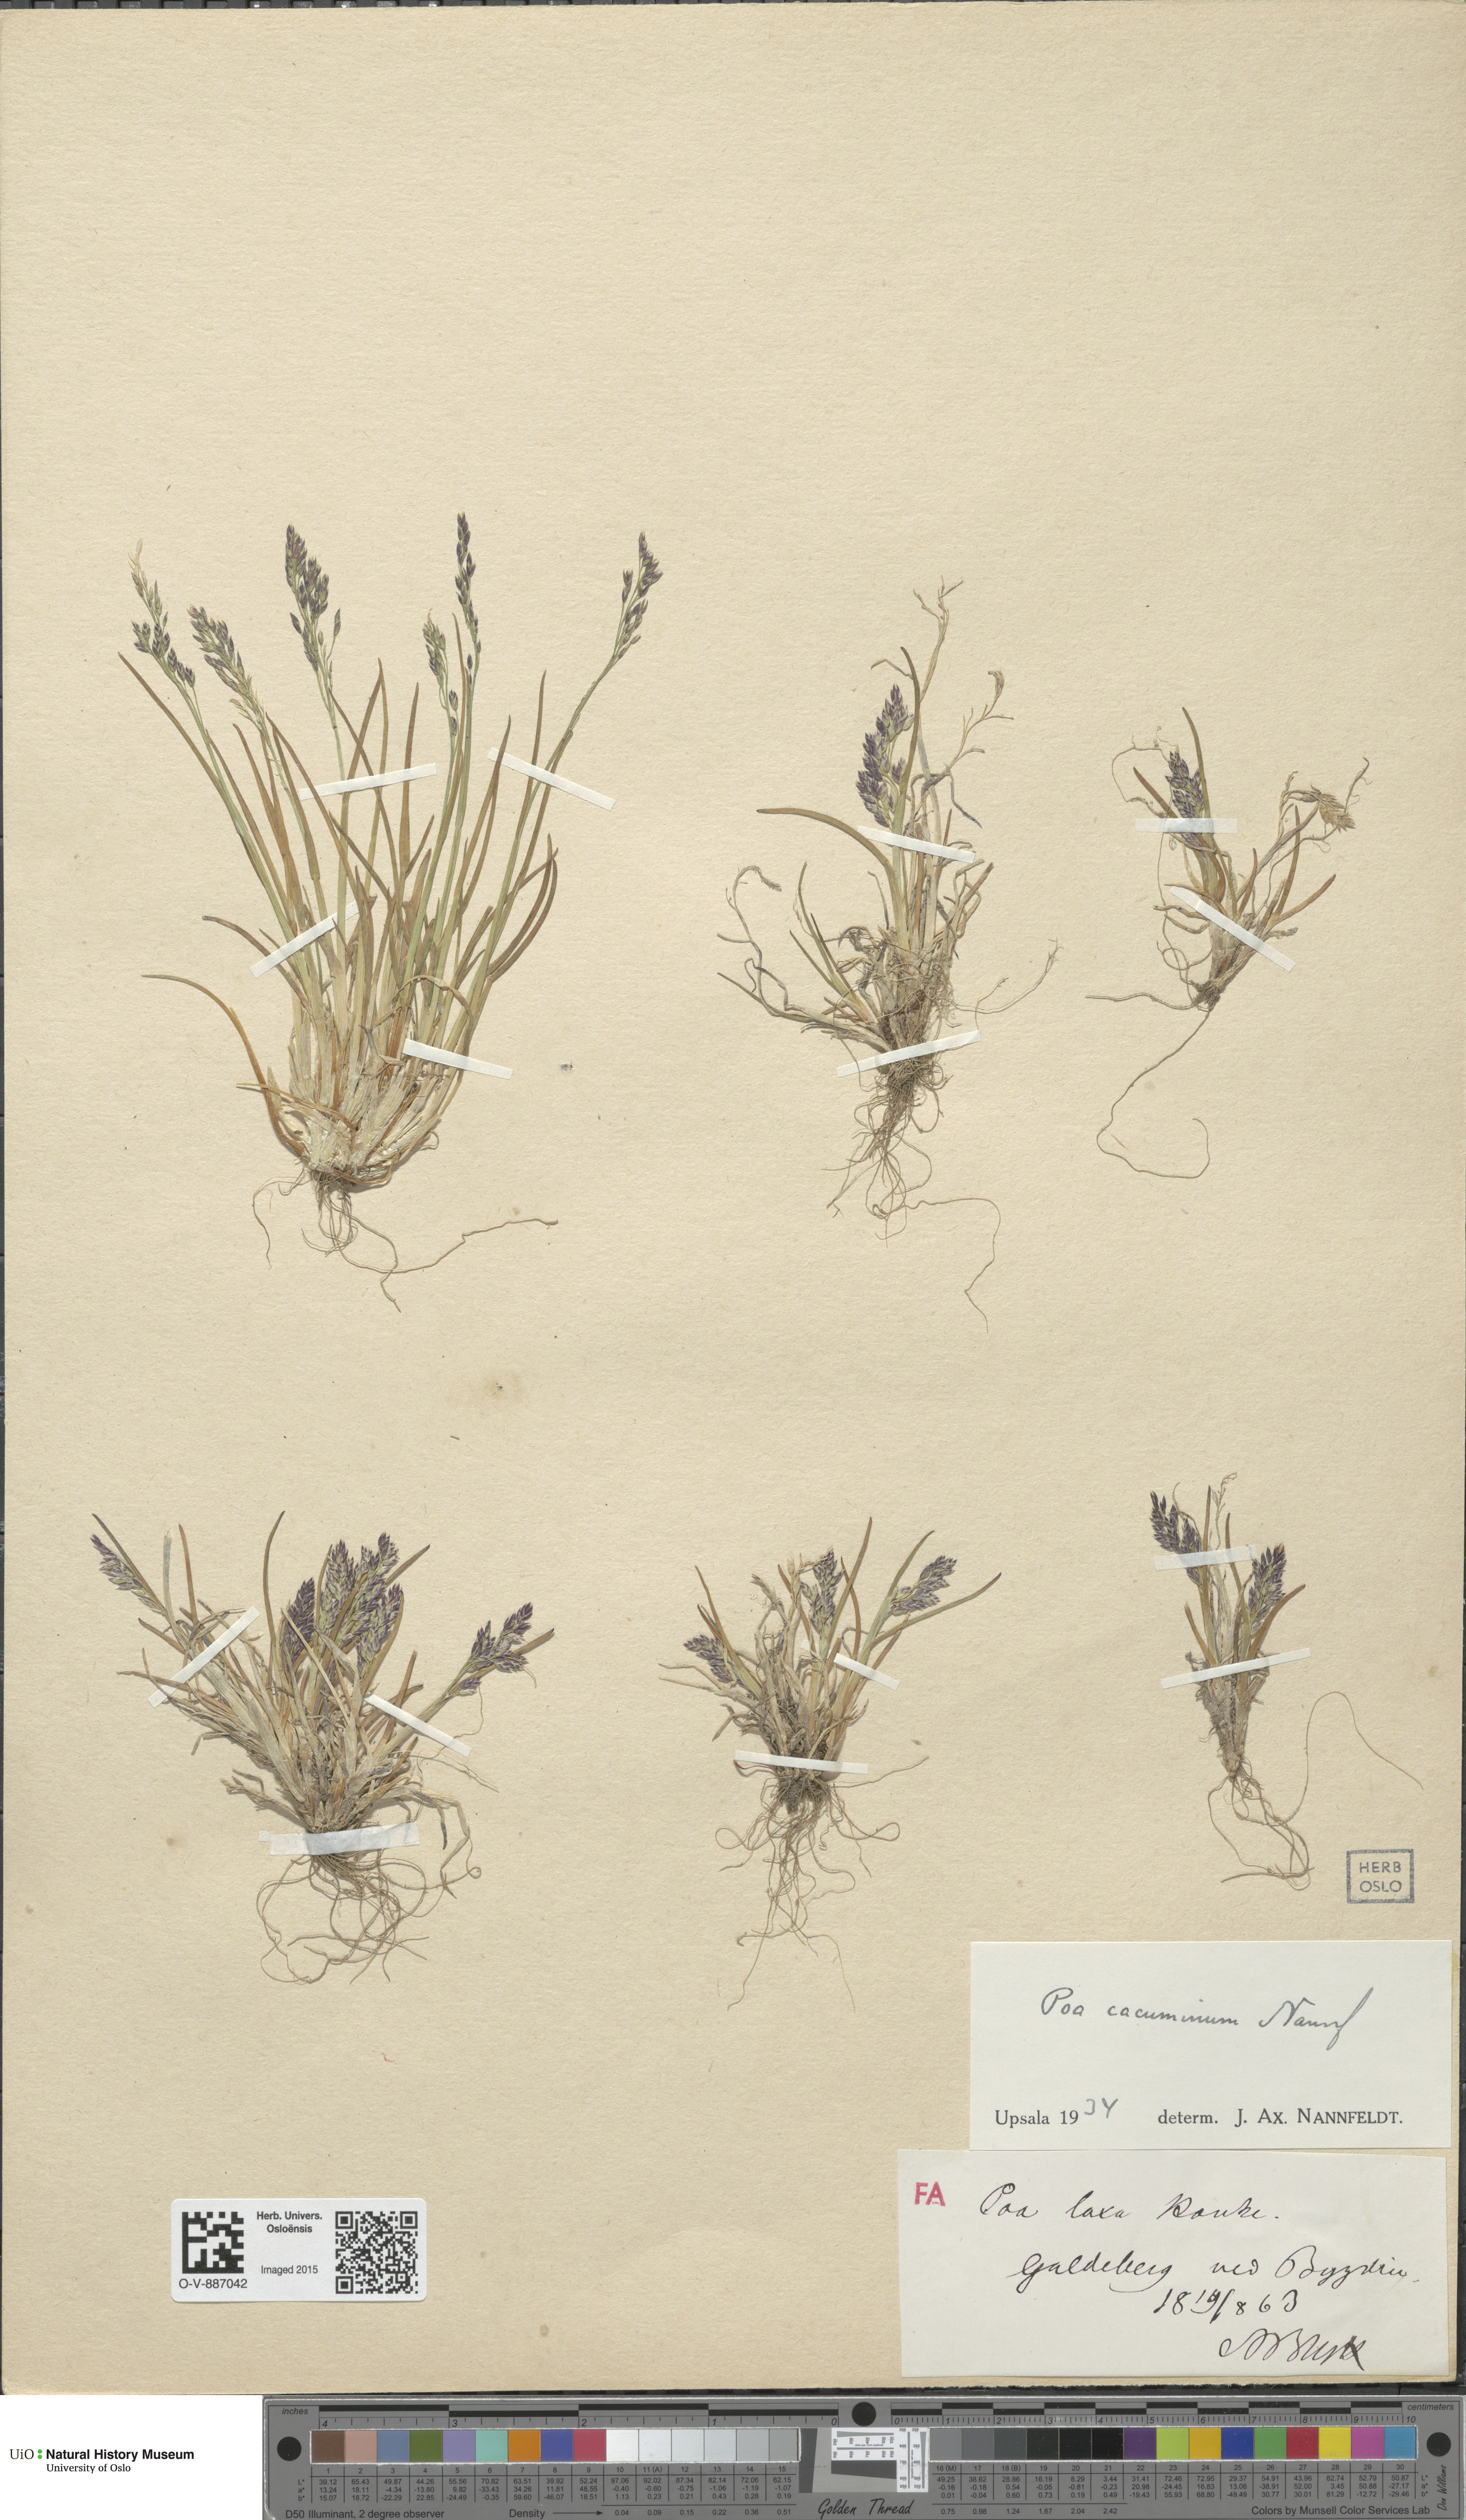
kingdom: Plantae
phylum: Tracheophyta
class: Liliopsida
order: Poales
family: Poaceae
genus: Poa
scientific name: Poa flexuosa
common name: Wavy meadow-grass
